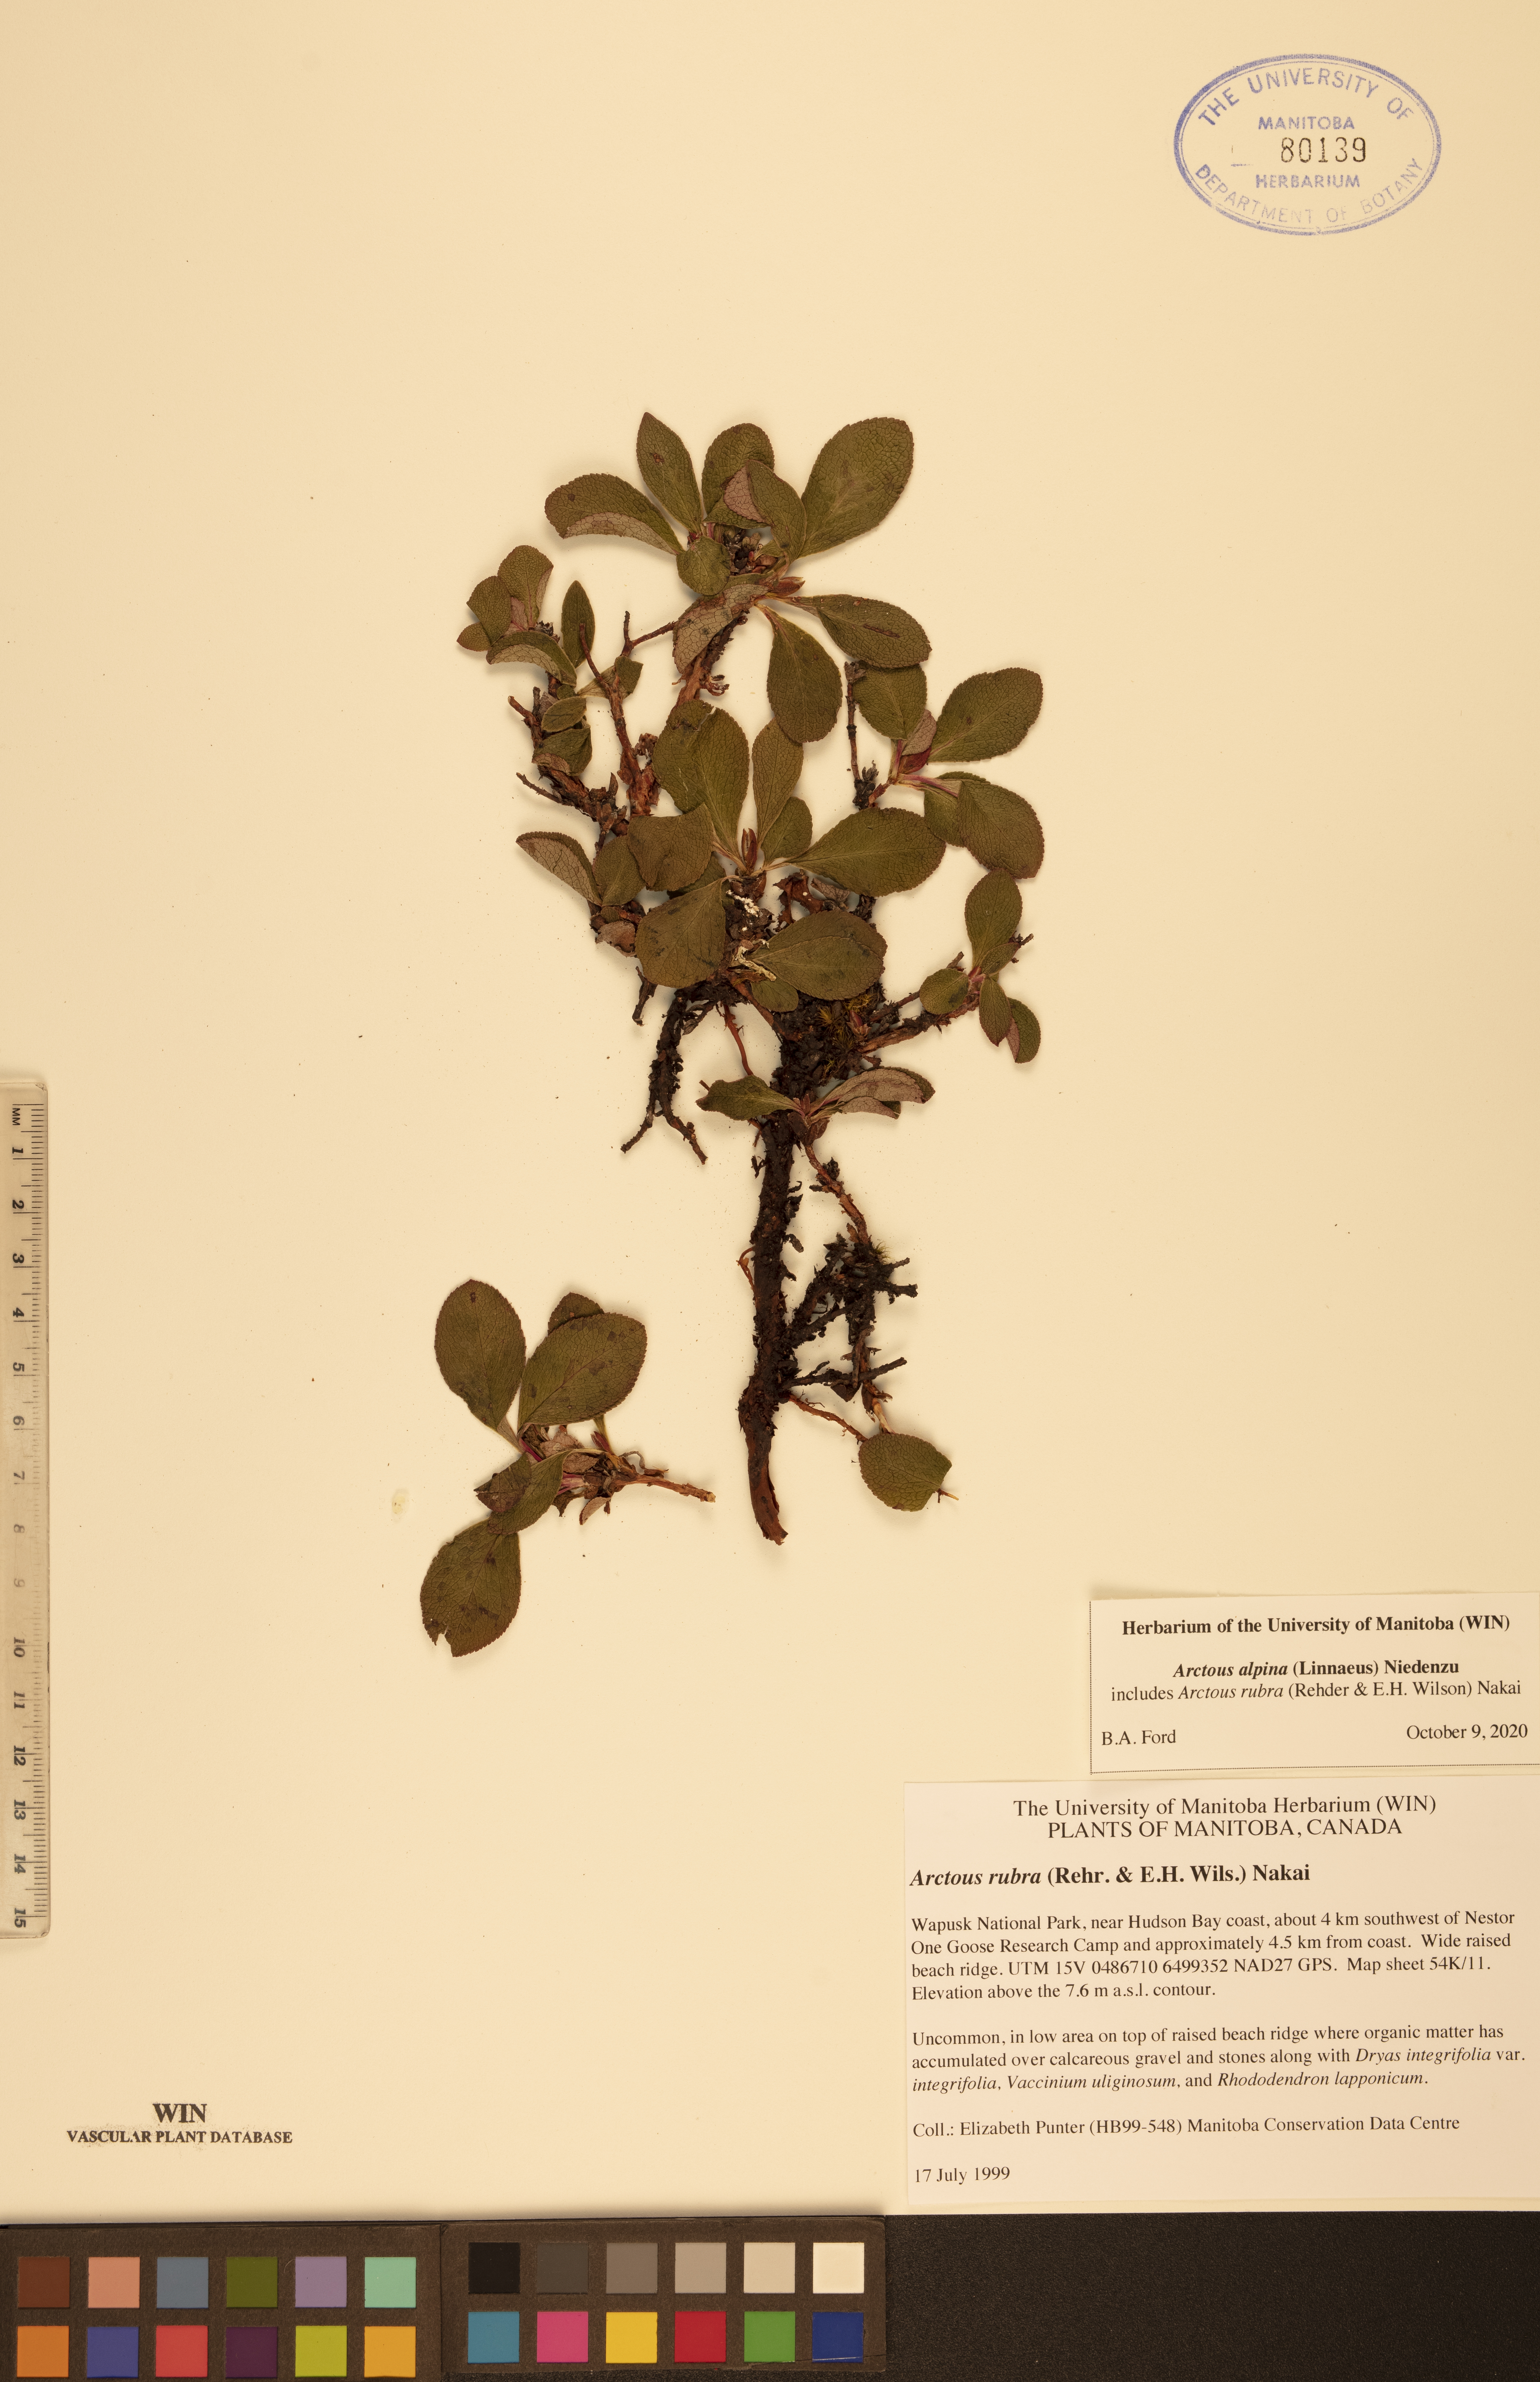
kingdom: Plantae
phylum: Tracheophyta
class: Magnoliopsida
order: Ericales
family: Ericaceae
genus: Arctostaphylos
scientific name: Arctostaphylos alpinus
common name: Alpine bearberry
